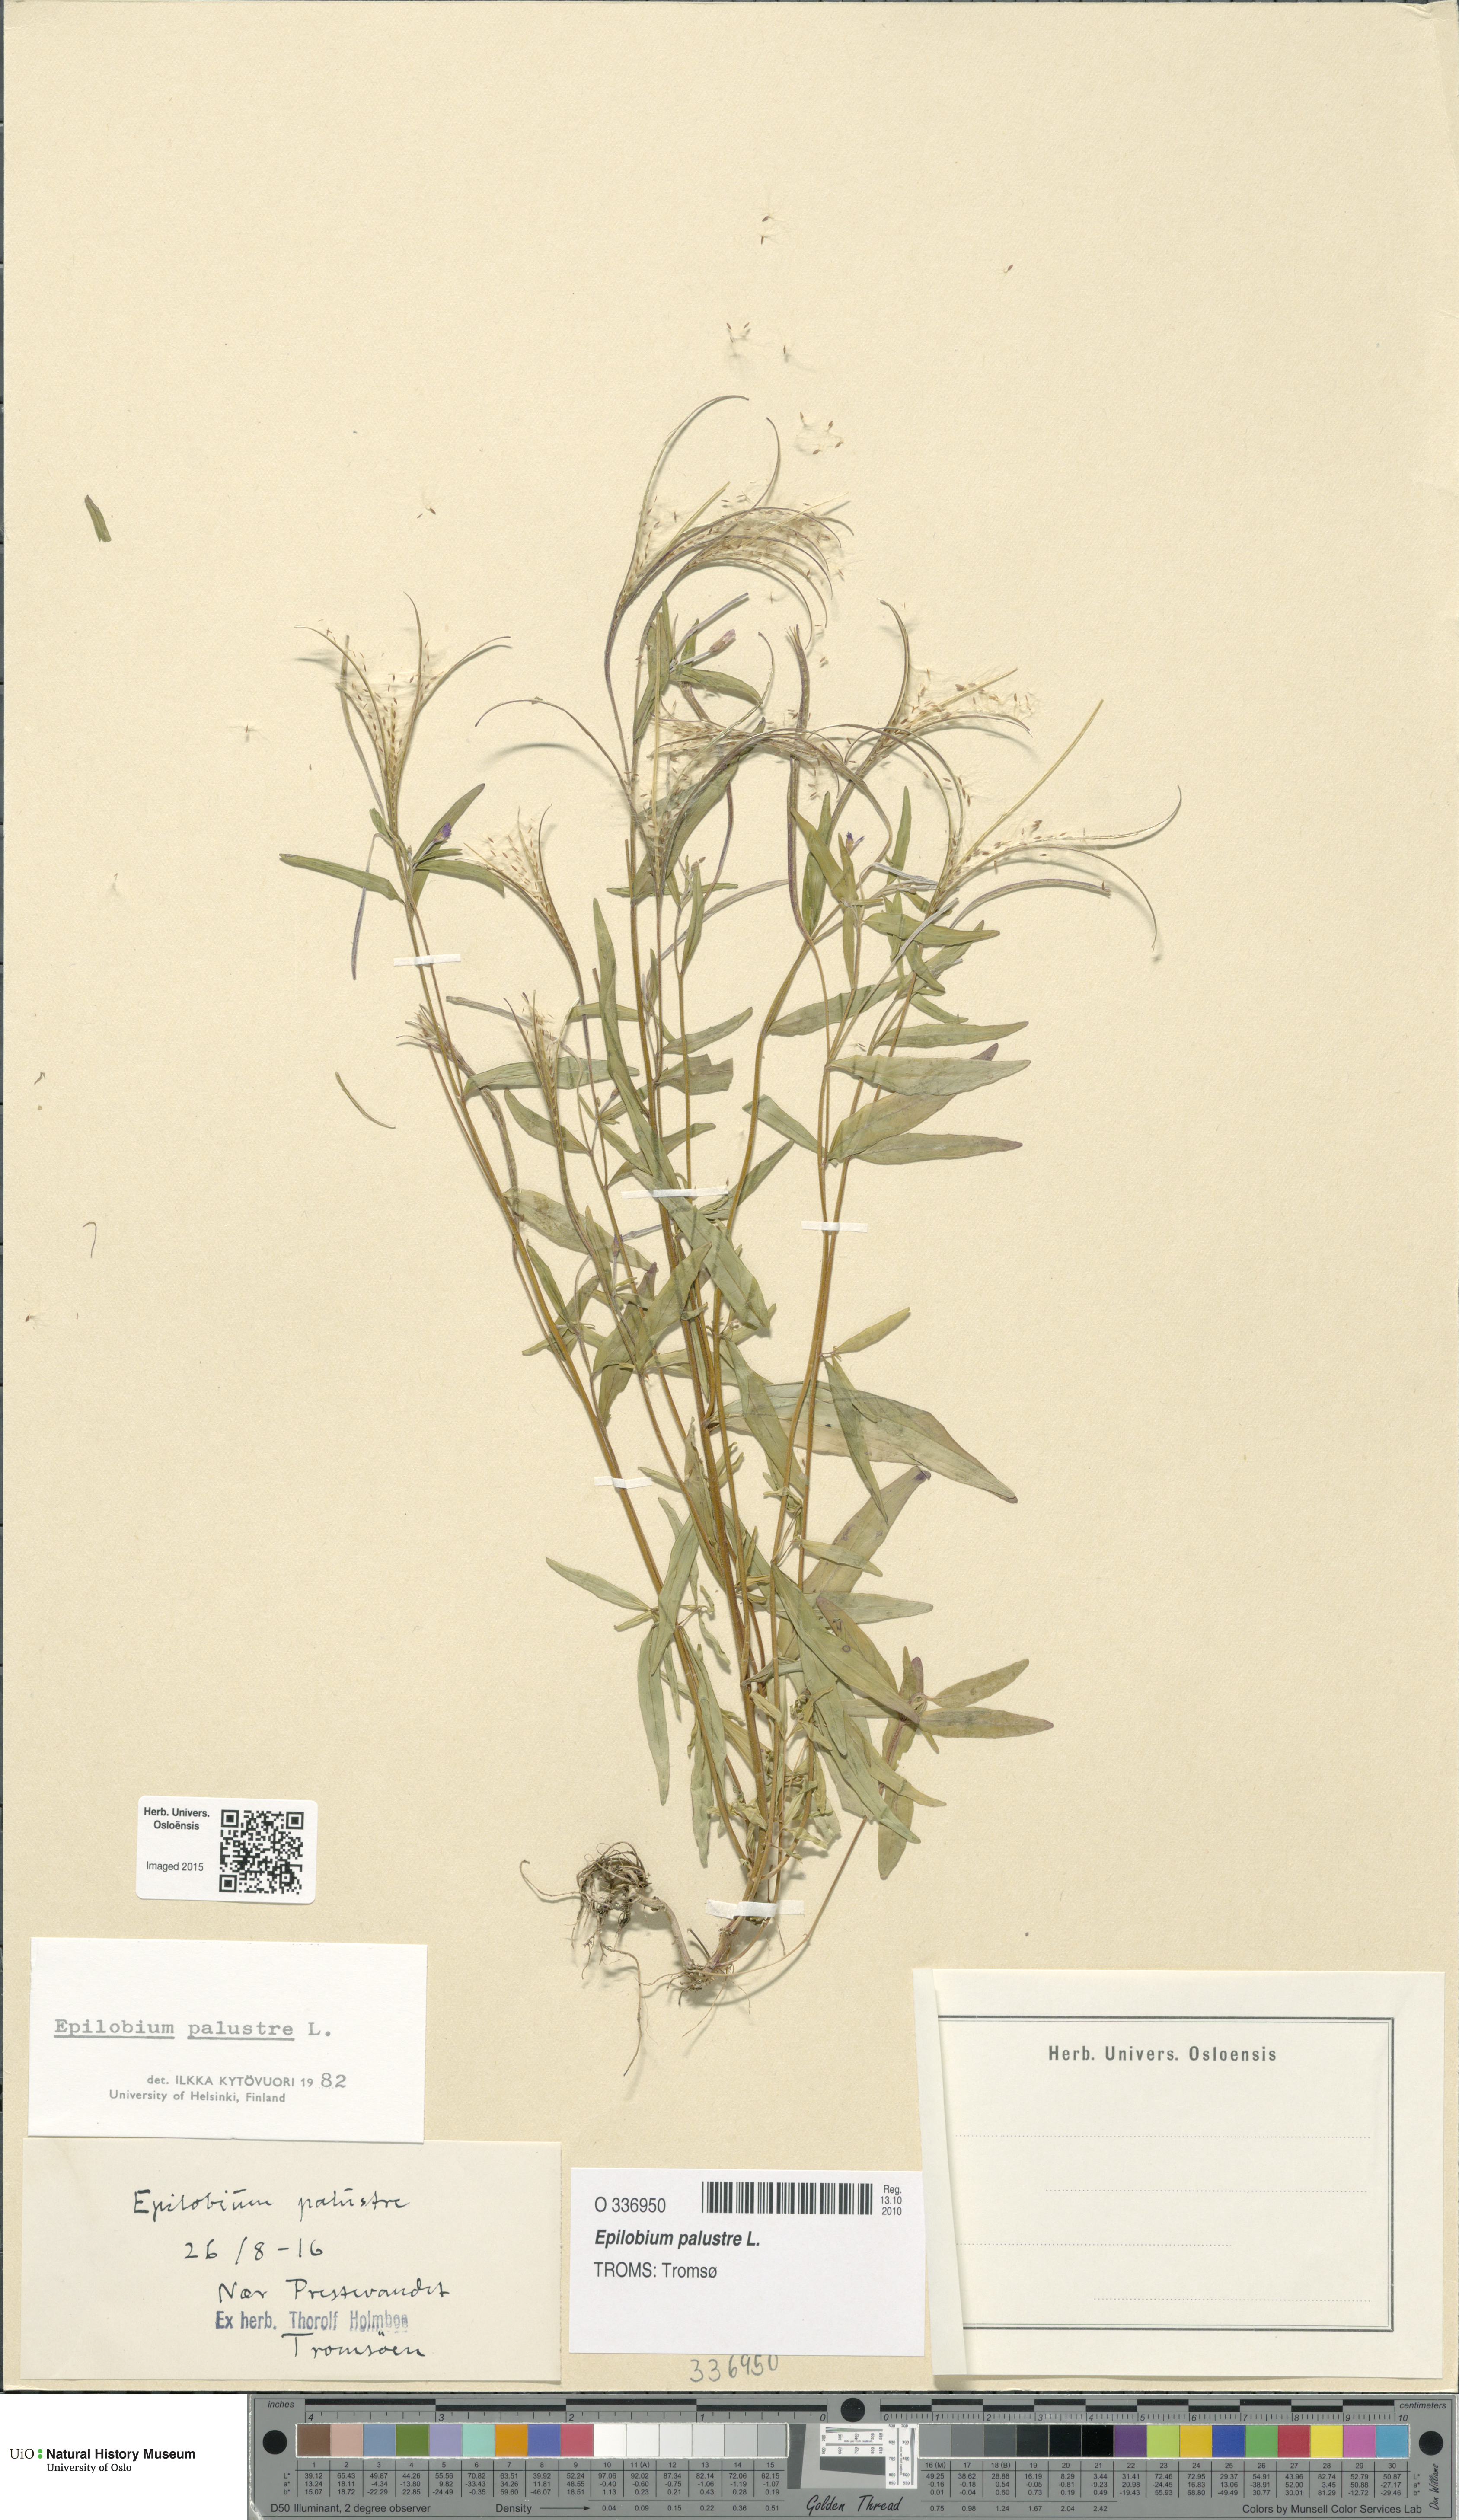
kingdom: Plantae
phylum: Tracheophyta
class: Magnoliopsida
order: Myrtales
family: Onagraceae
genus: Epilobium
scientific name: Epilobium palustre
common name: Marsh willowherb
